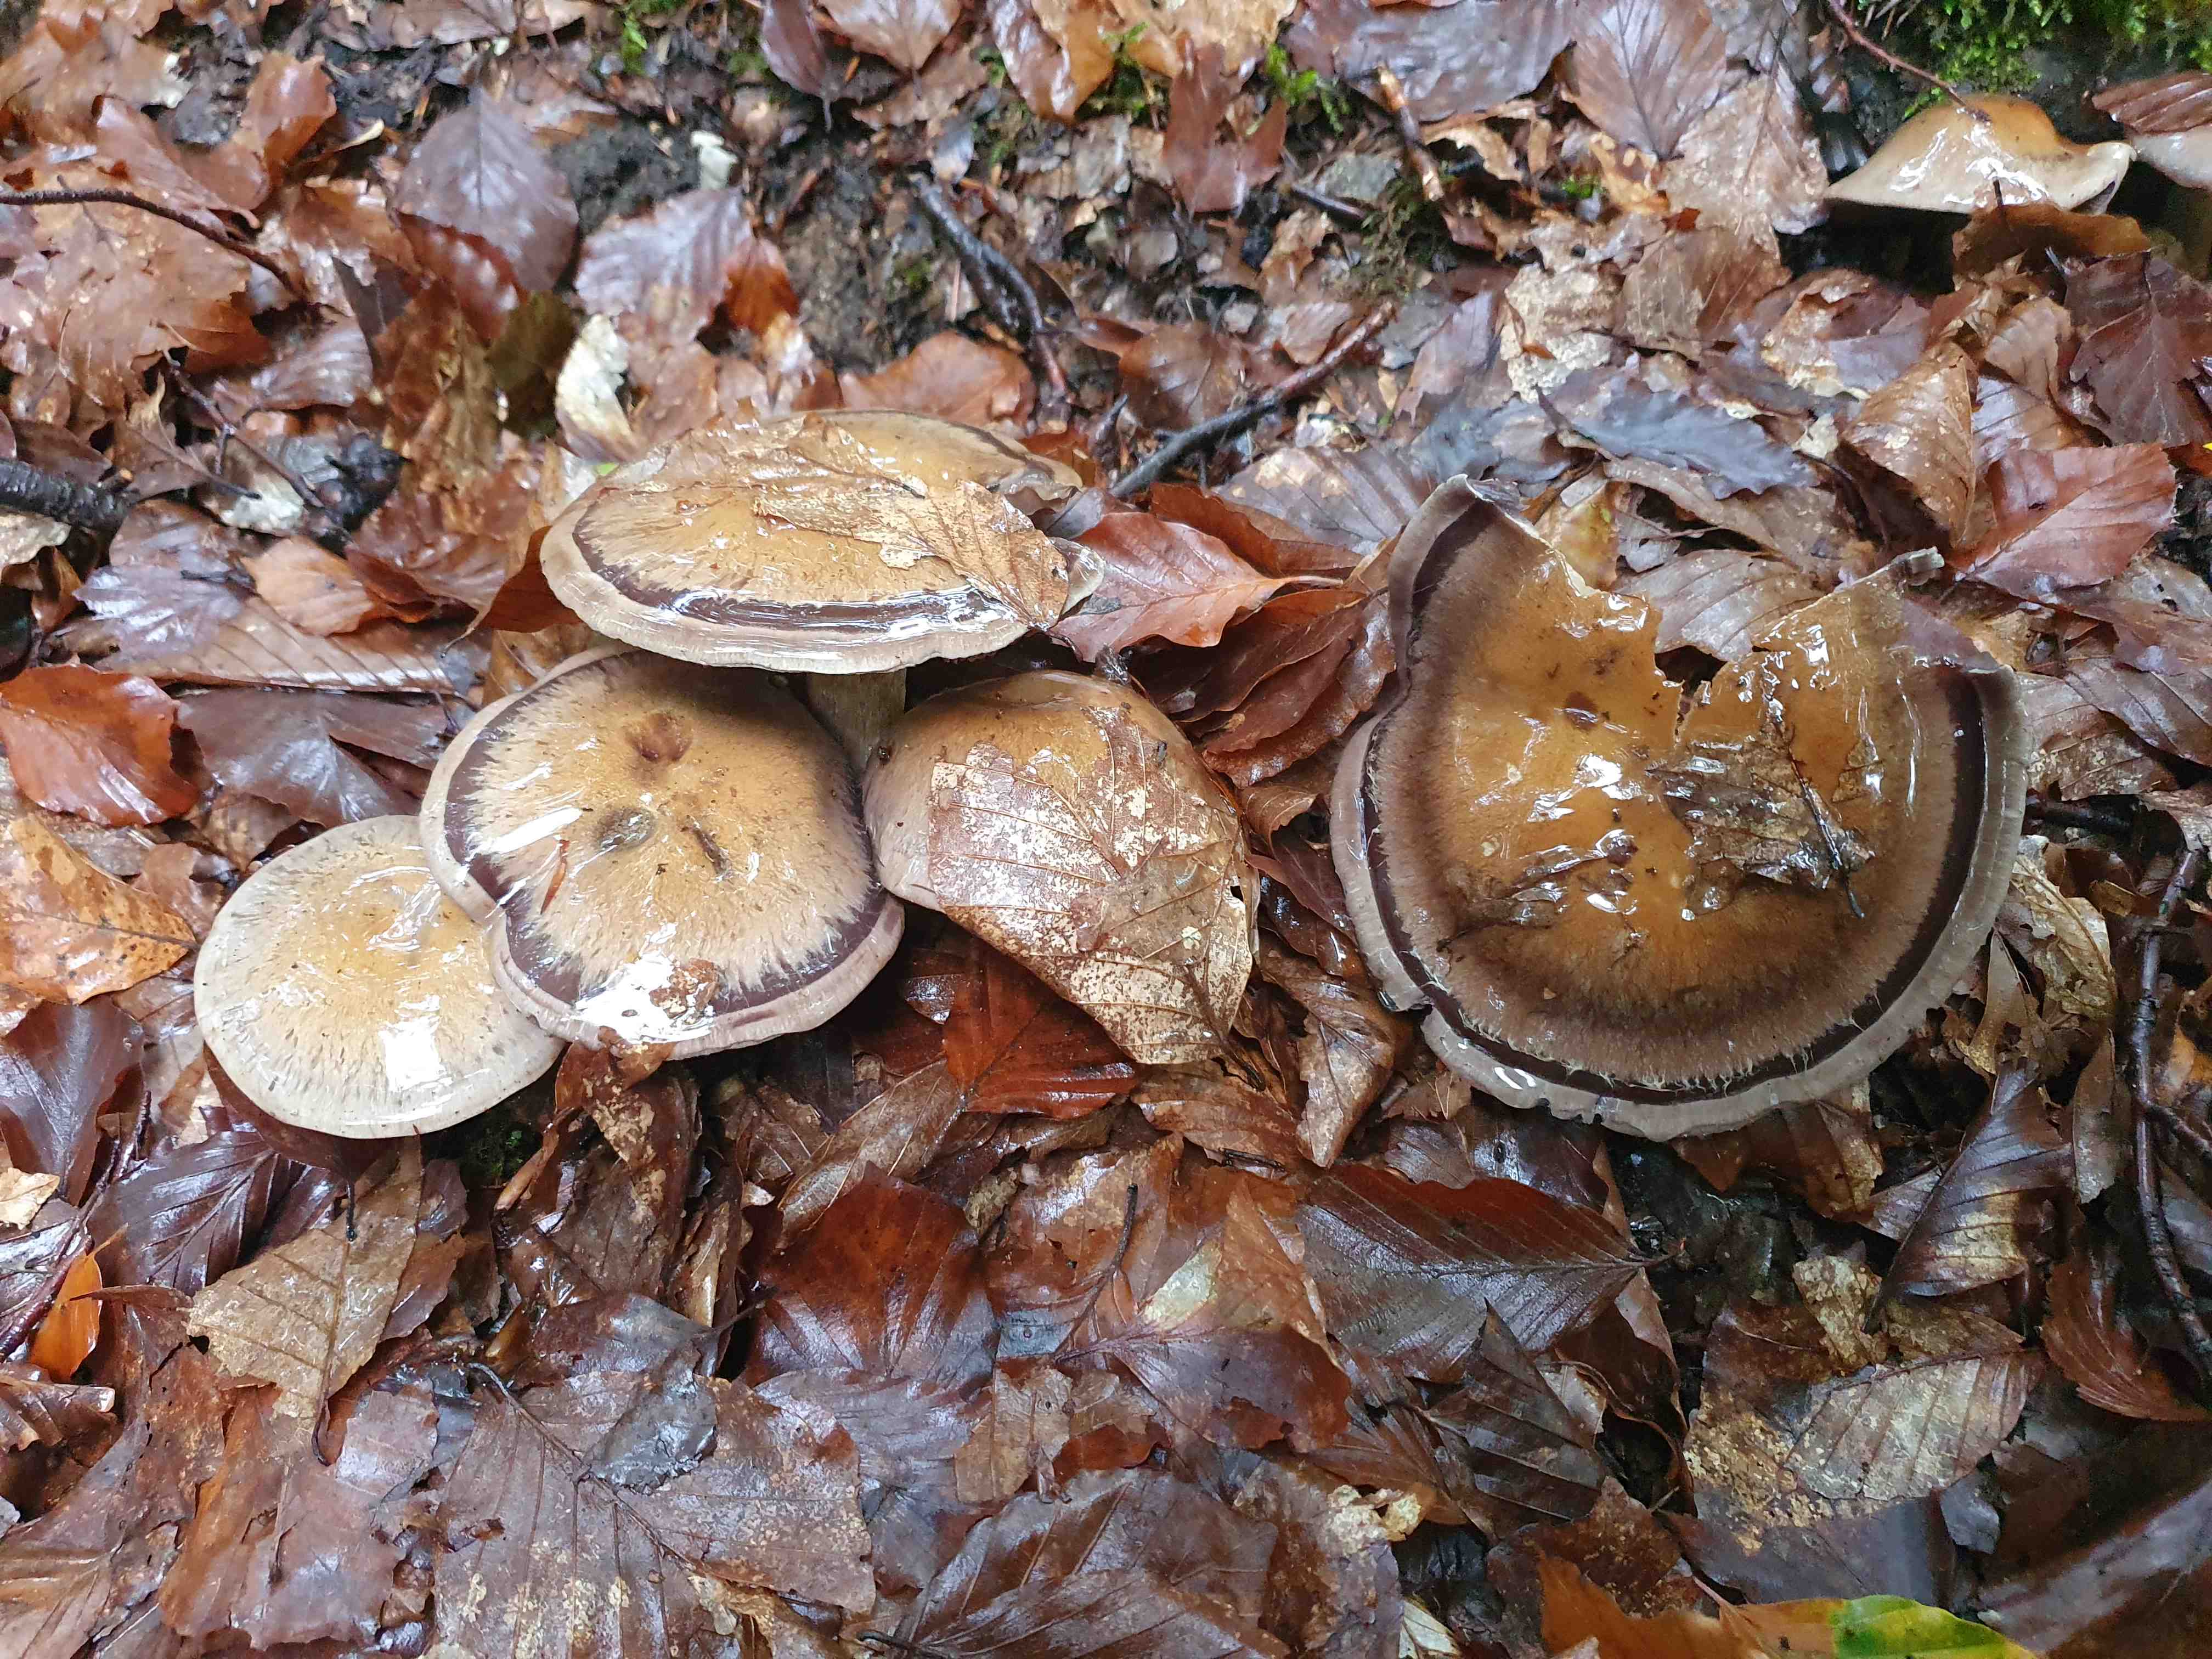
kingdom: Fungi
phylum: Basidiomycota
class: Agaricomycetes
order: Agaricales
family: Cortinariaceae
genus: Cortinarius
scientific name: Cortinarius
